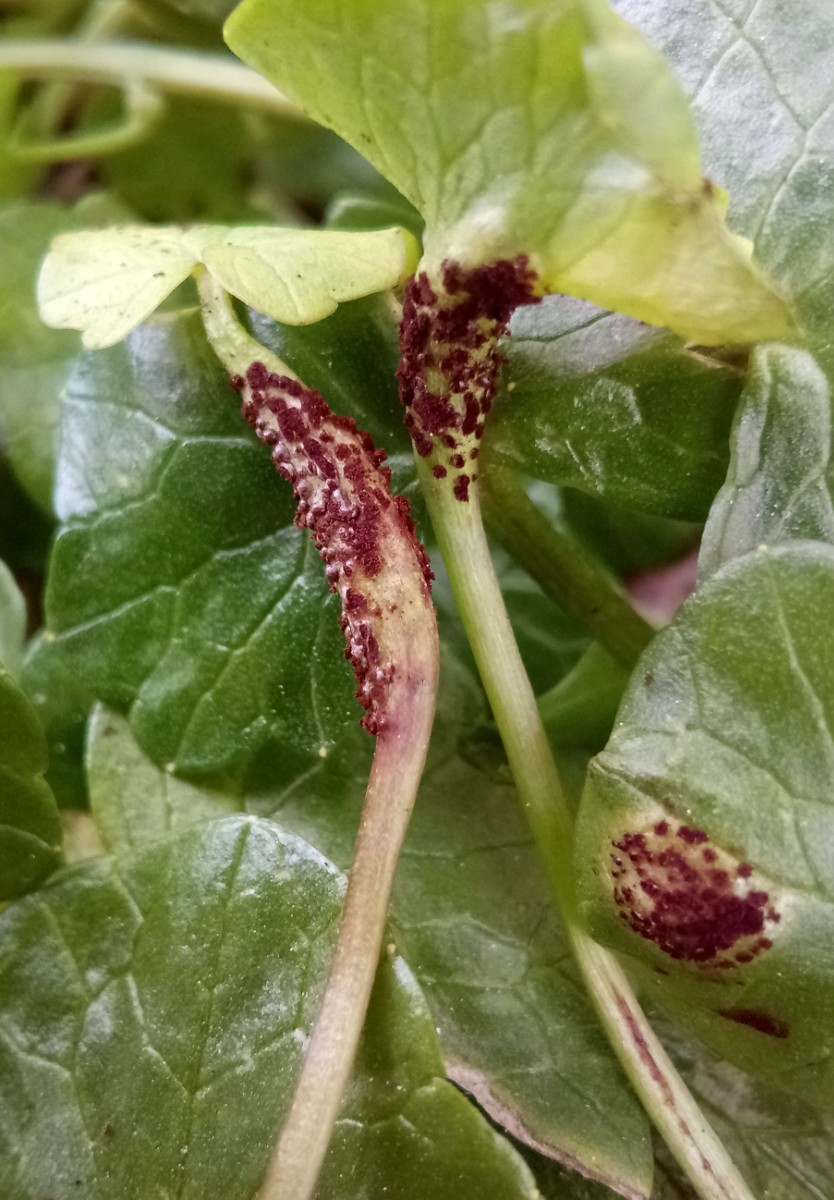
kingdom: Fungi
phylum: Basidiomycota
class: Pucciniomycetes
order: Pucciniales
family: Pucciniaceae
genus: Uromyces
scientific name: Uromyces ficariae
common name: vorterod-encellerust
